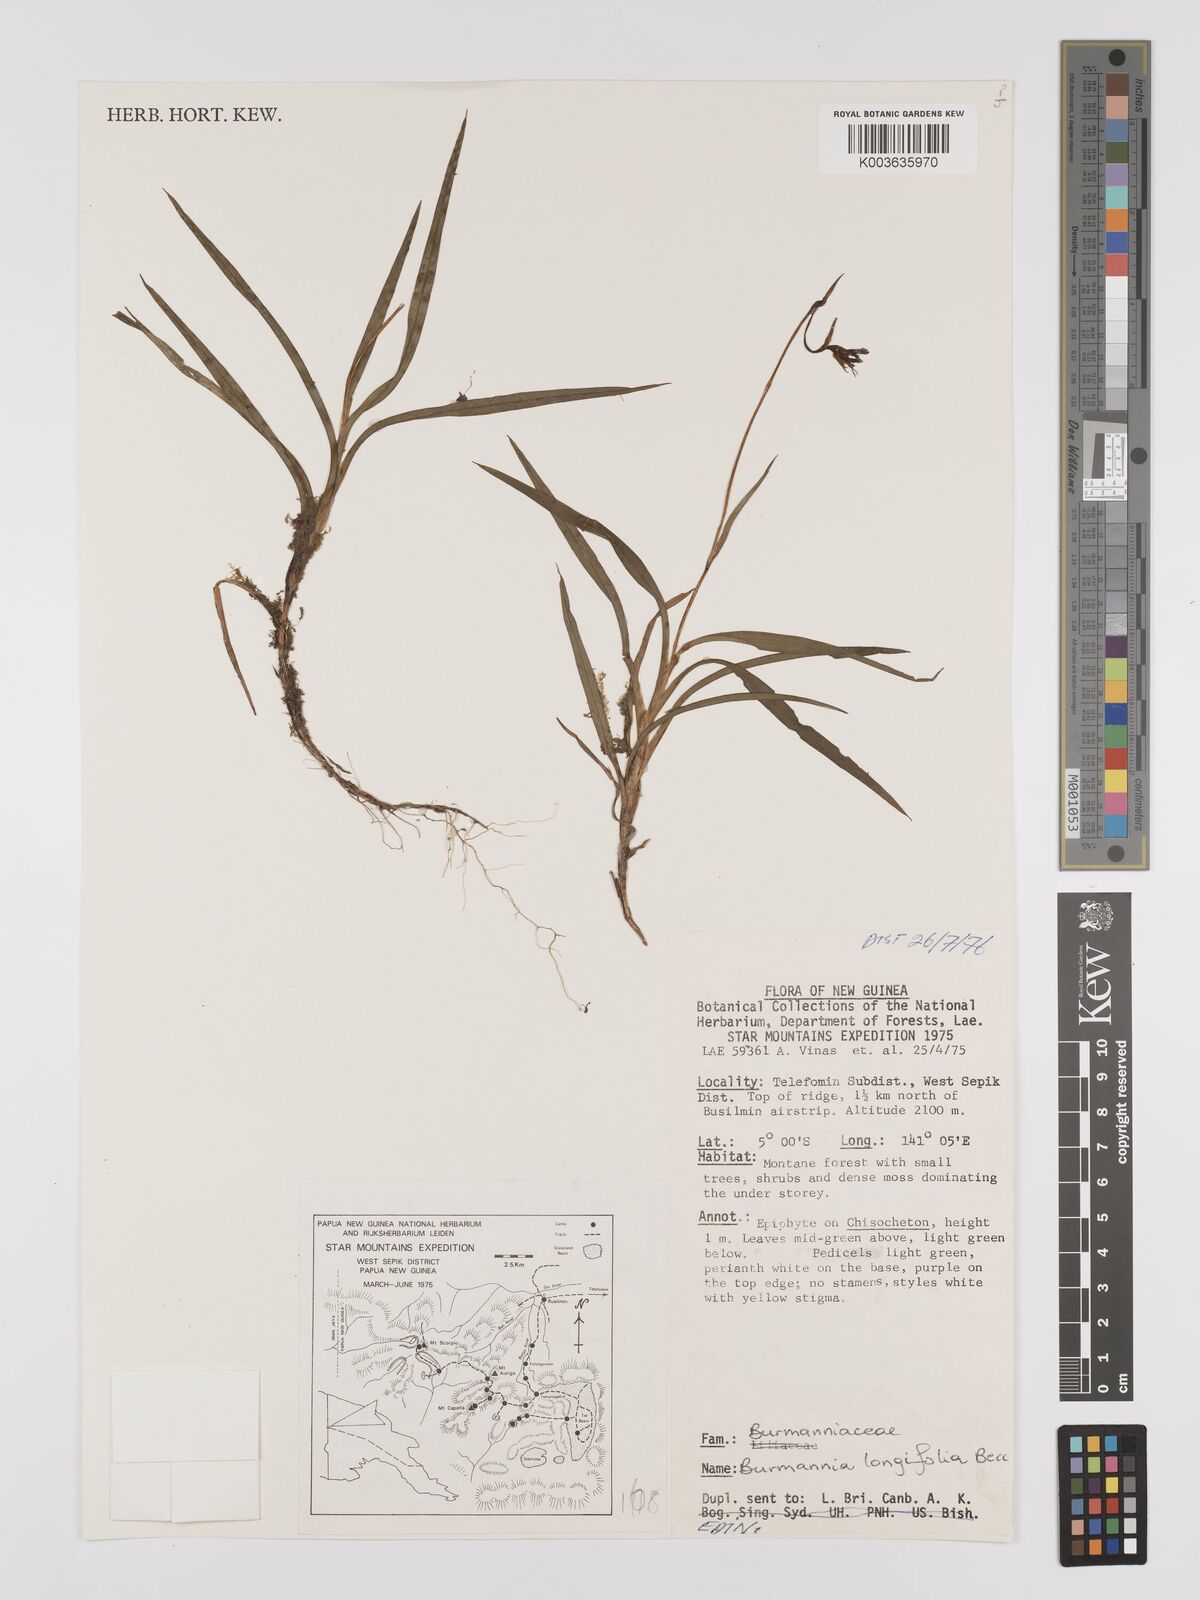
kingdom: Plantae
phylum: Tracheophyta
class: Liliopsida
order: Dioscoreales
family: Burmanniaceae
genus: Burmannia
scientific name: Burmannia longifolia
